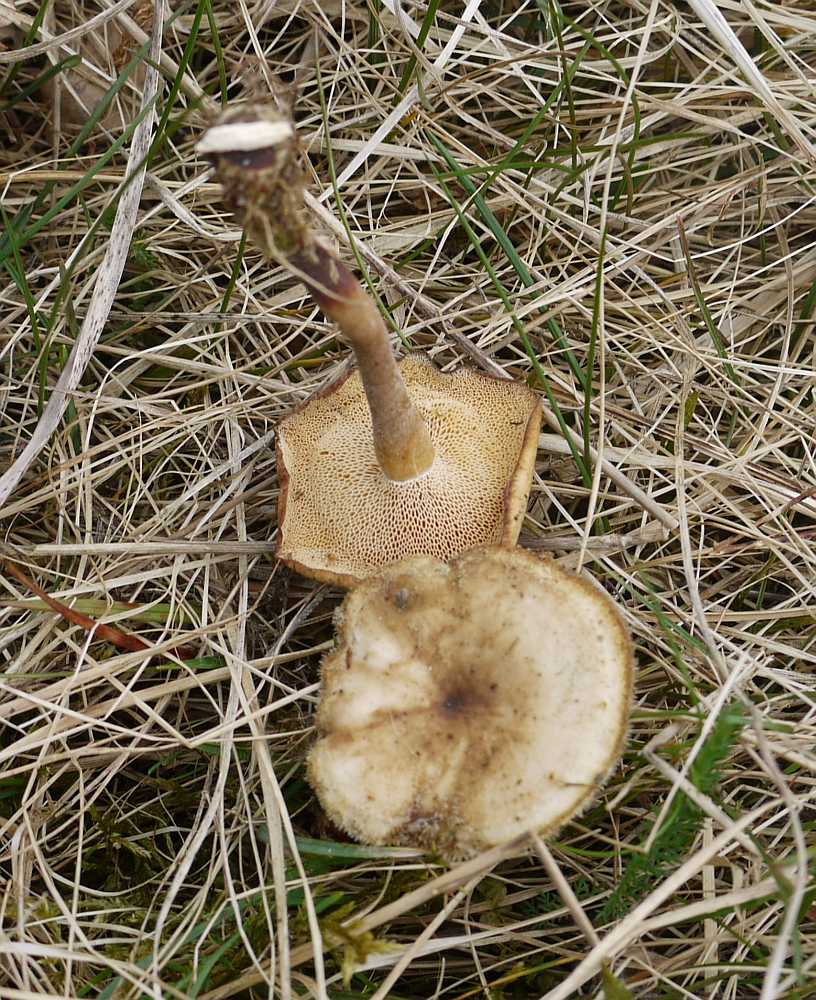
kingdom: Fungi
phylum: Basidiomycota
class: Agaricomycetes
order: Polyporales
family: Polyporaceae
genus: Lentinus
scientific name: Lentinus brumalis
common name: vinter-stilkporesvamp
